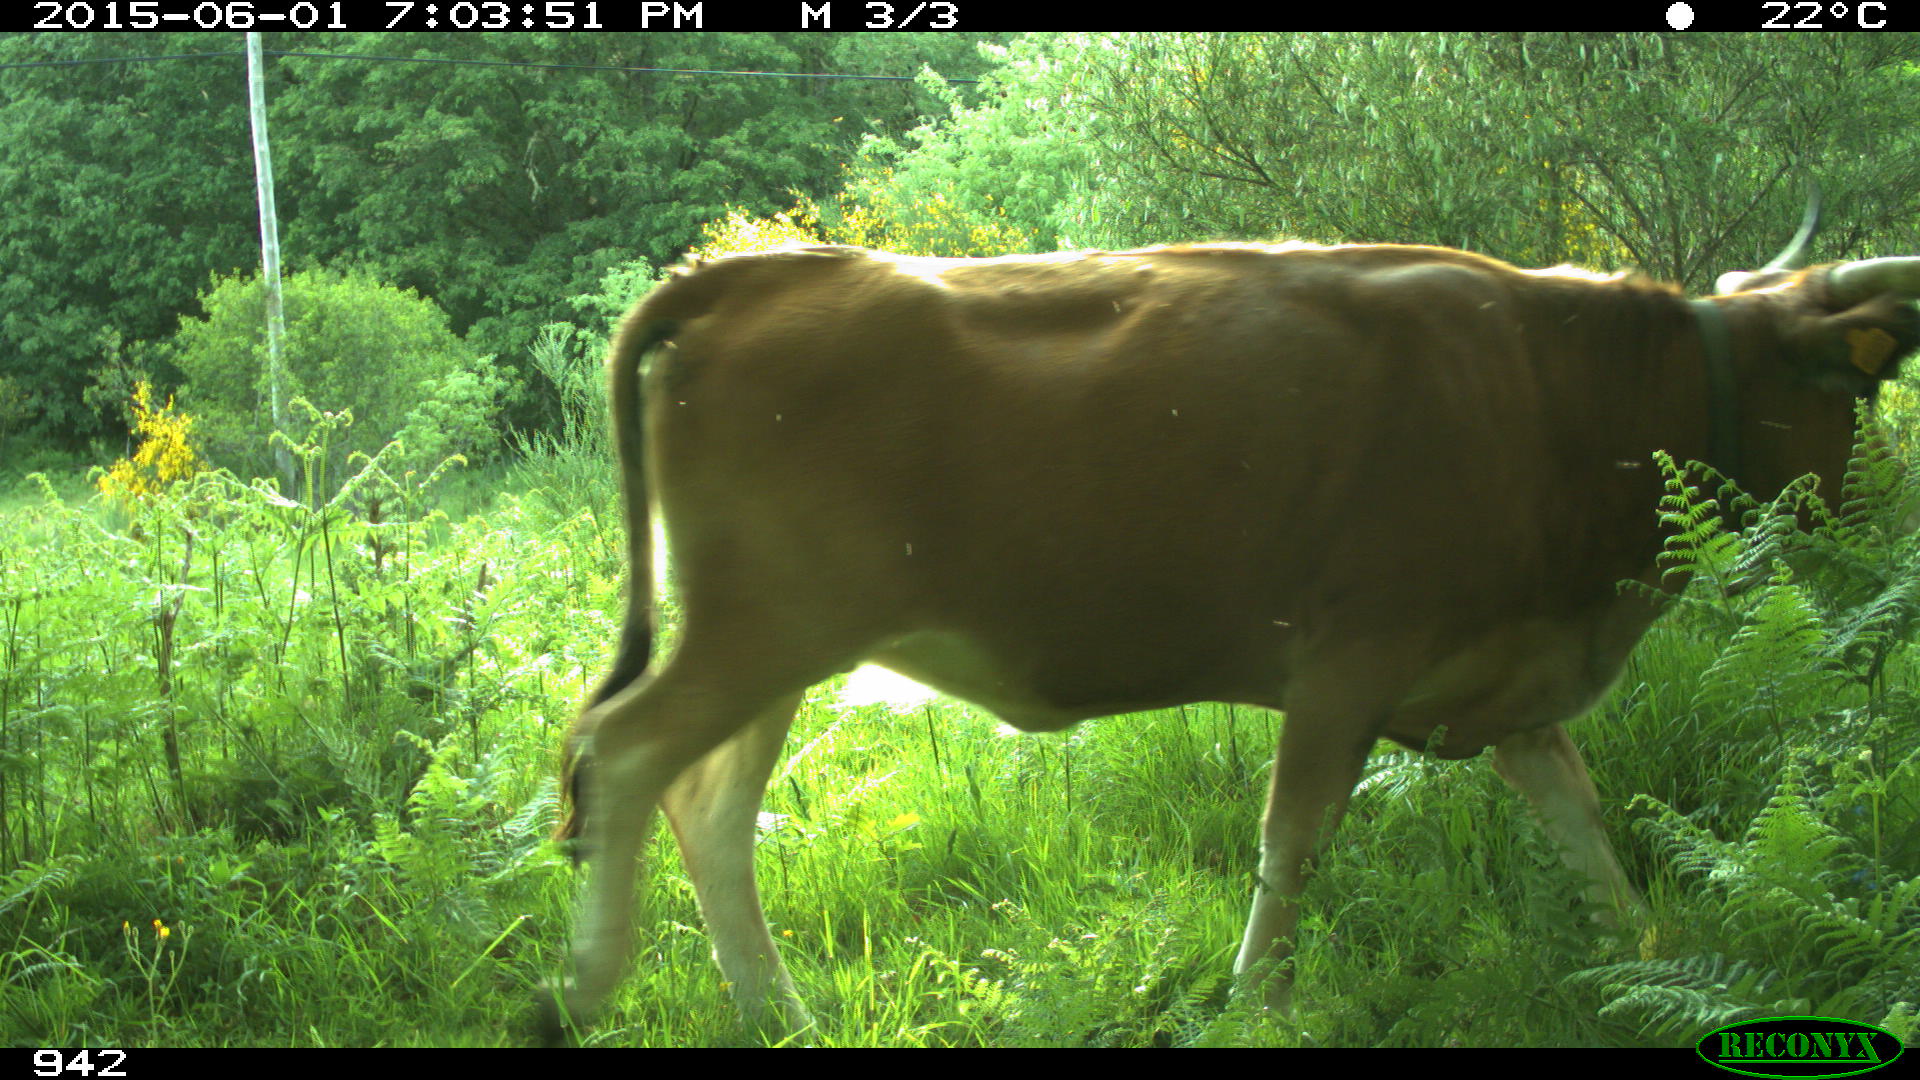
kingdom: Animalia
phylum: Chordata
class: Mammalia
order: Artiodactyla
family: Bovidae
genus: Bos
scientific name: Bos taurus
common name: Domesticated cattle
